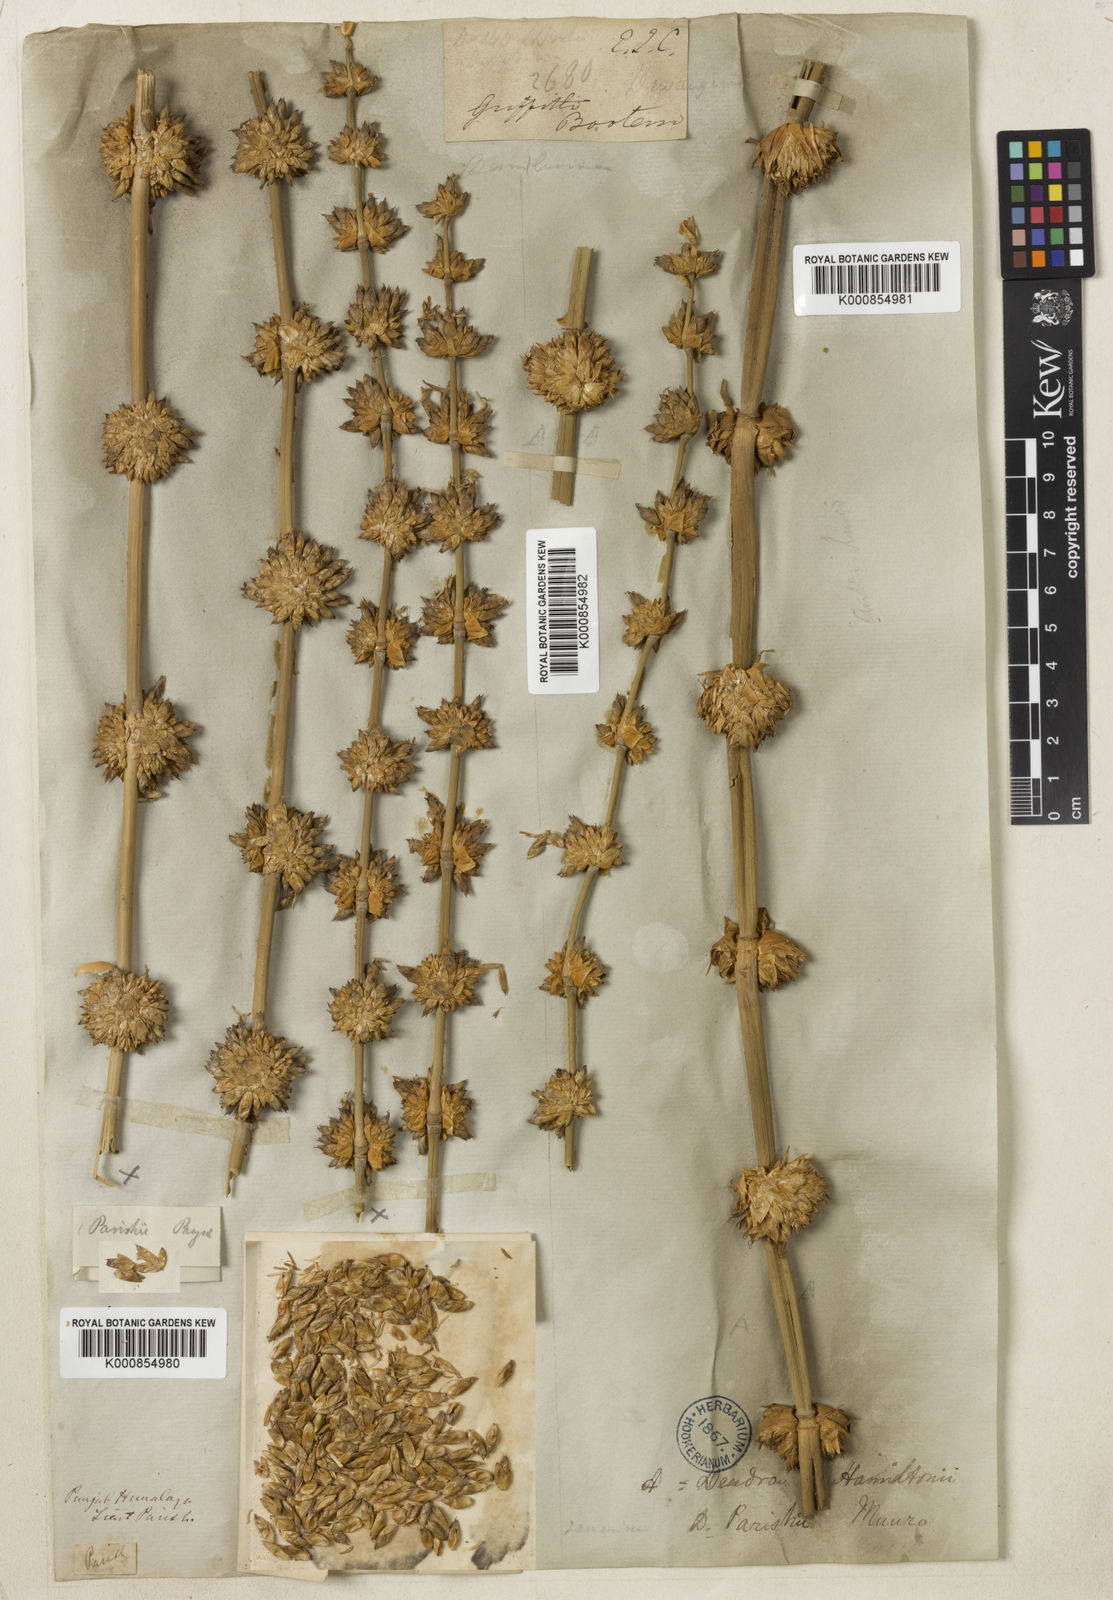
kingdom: Plantae
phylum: Tracheophyta
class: Liliopsida
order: Poales
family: Poaceae
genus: Dendrocalamus
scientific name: Dendrocalamus parishii
